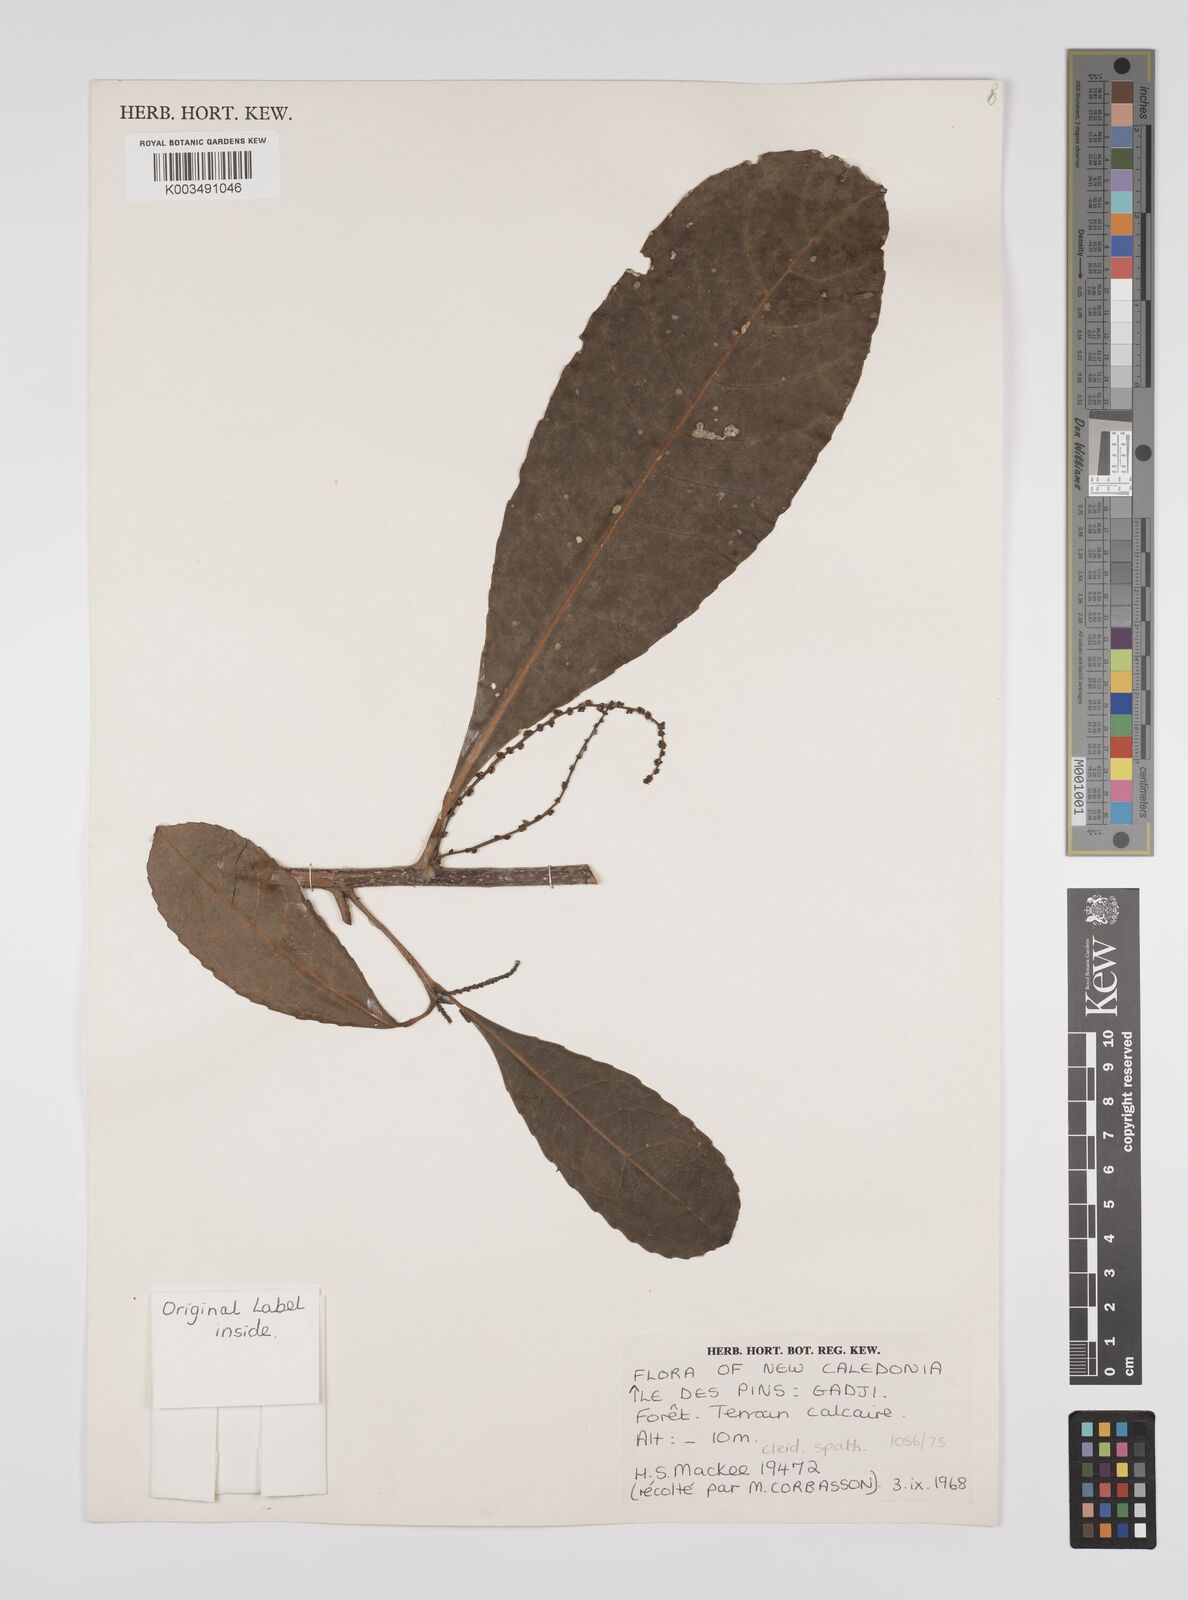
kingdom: Plantae
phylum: Tracheophyta
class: Magnoliopsida
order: Malpighiales
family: Euphorbiaceae
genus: Cleidion
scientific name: Cleidion vieillardii
